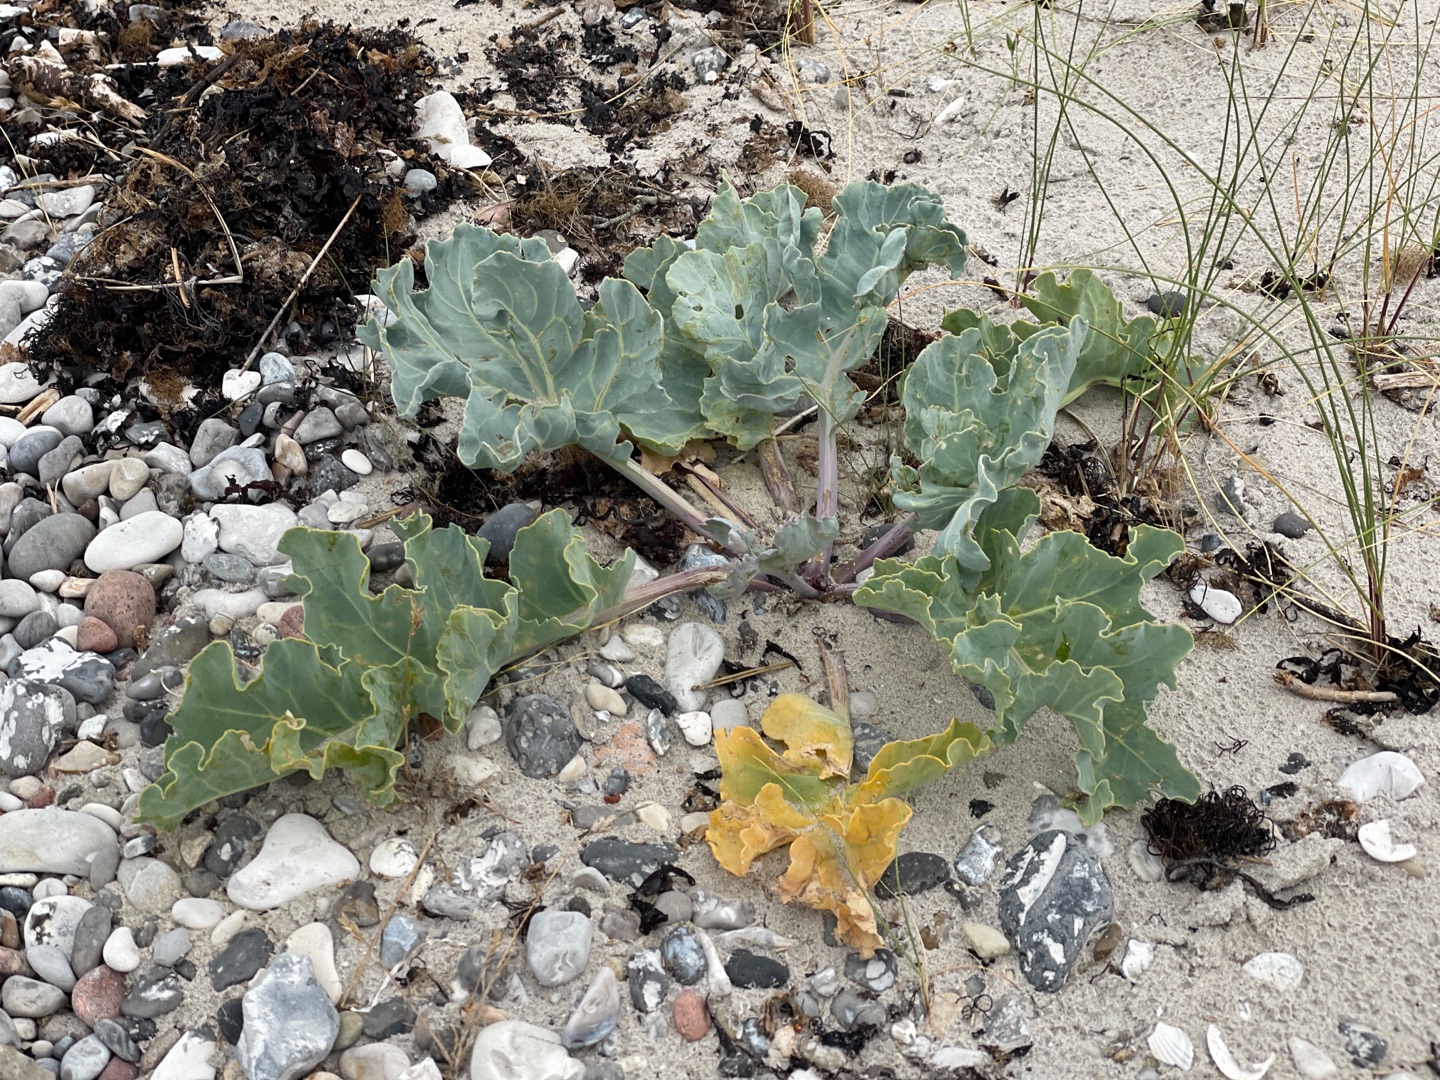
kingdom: Plantae
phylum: Tracheophyta
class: Magnoliopsida
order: Brassicales
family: Brassicaceae
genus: Crambe
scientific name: Crambe maritima
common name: Strandkål
